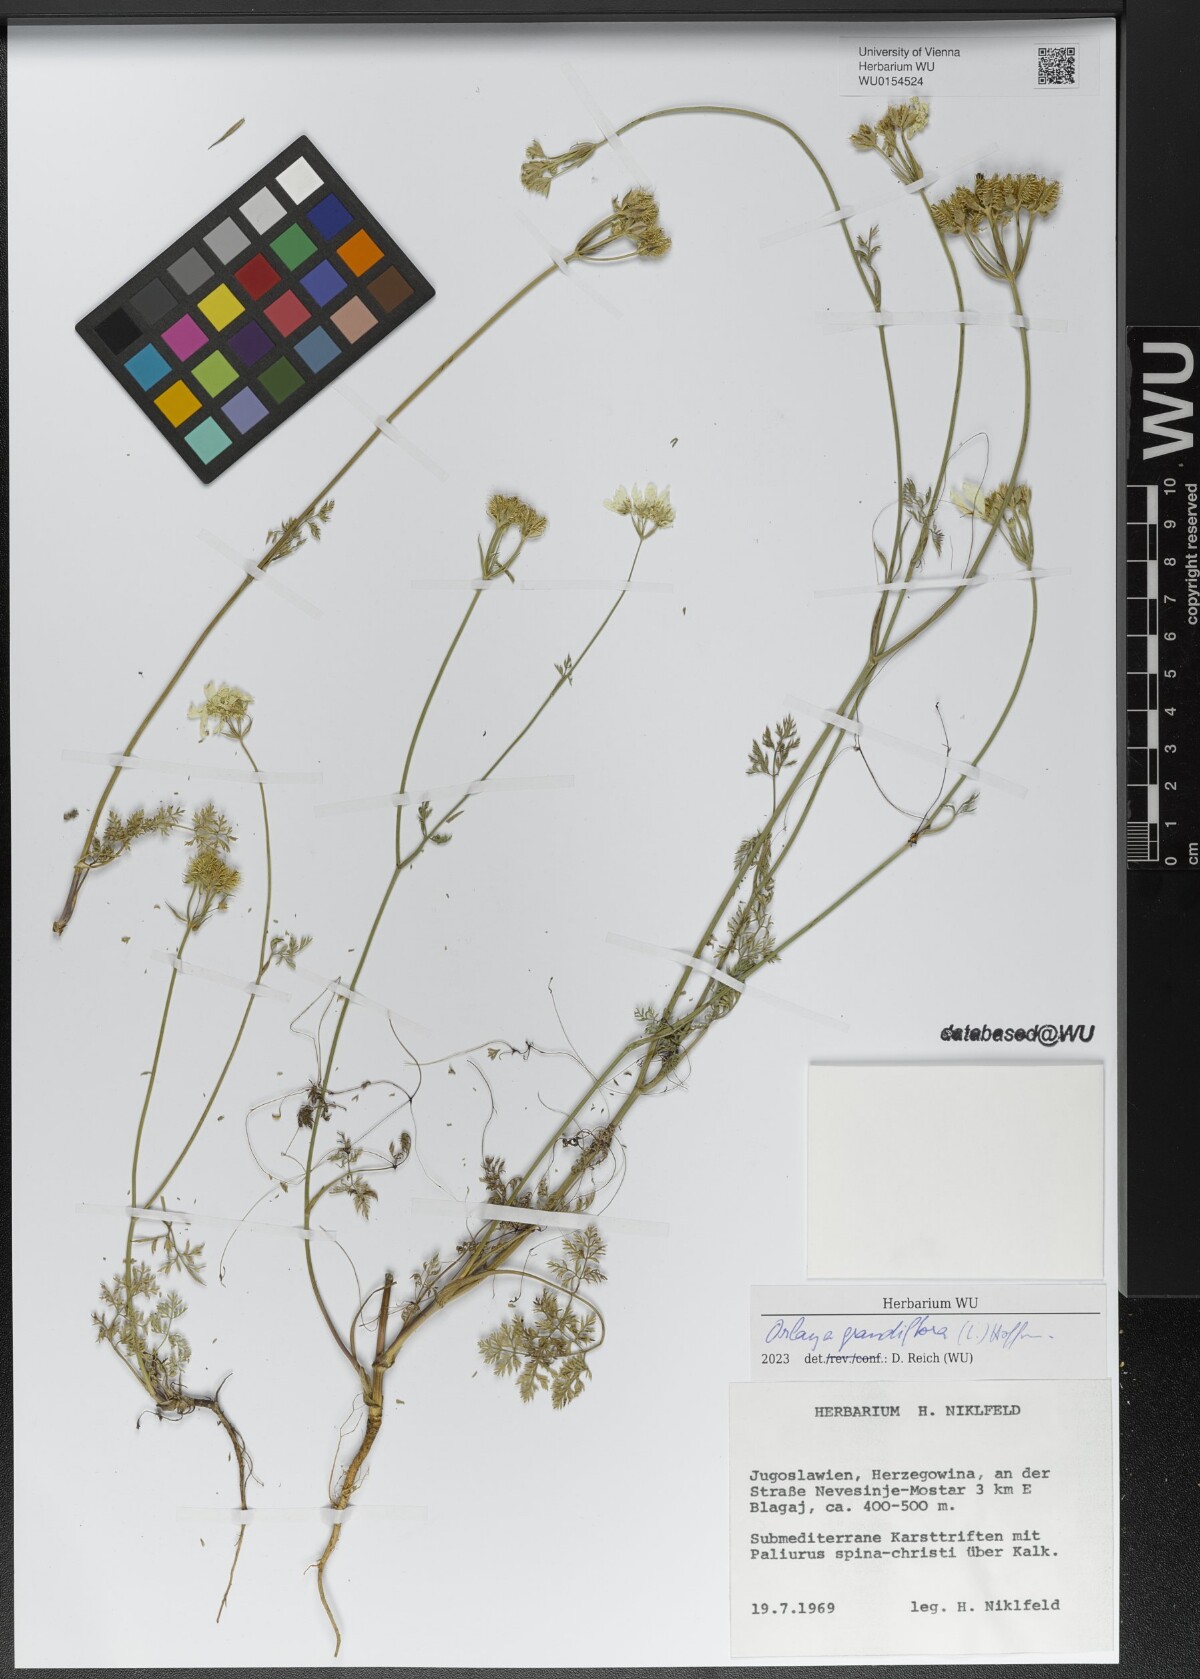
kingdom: Plantae
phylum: Tracheophyta
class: Magnoliopsida
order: Apiales
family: Apiaceae
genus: Orlaya
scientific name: Orlaya grandiflora
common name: White lace flower
